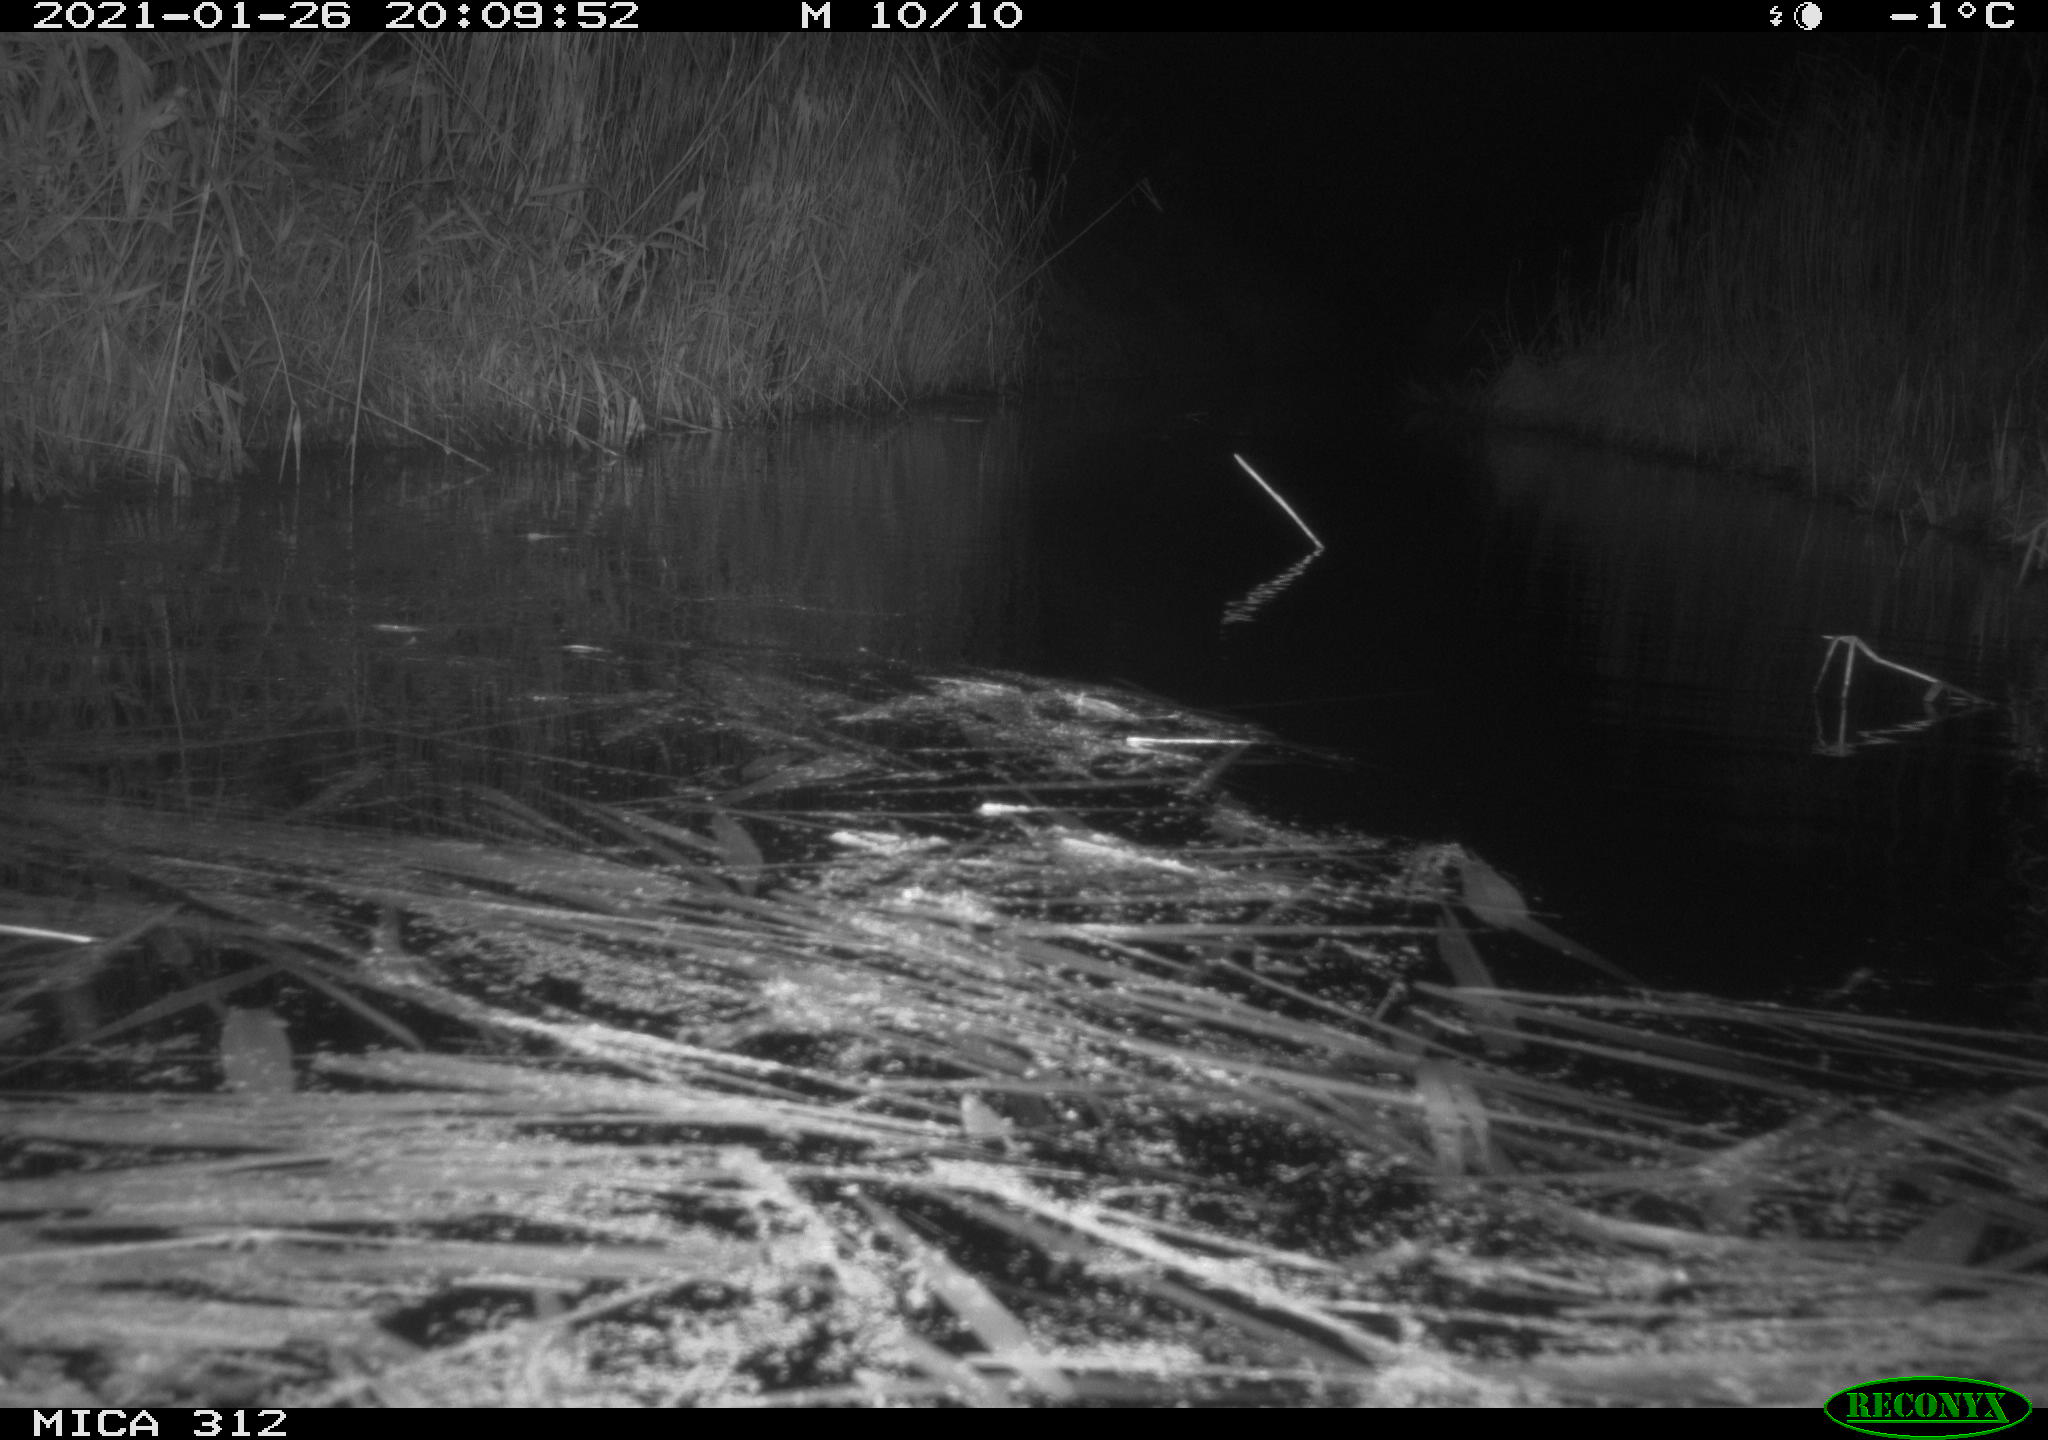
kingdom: Animalia
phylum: Chordata
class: Mammalia
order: Rodentia
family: Muridae
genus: Rattus
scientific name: Rattus norvegicus
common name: Brown rat
